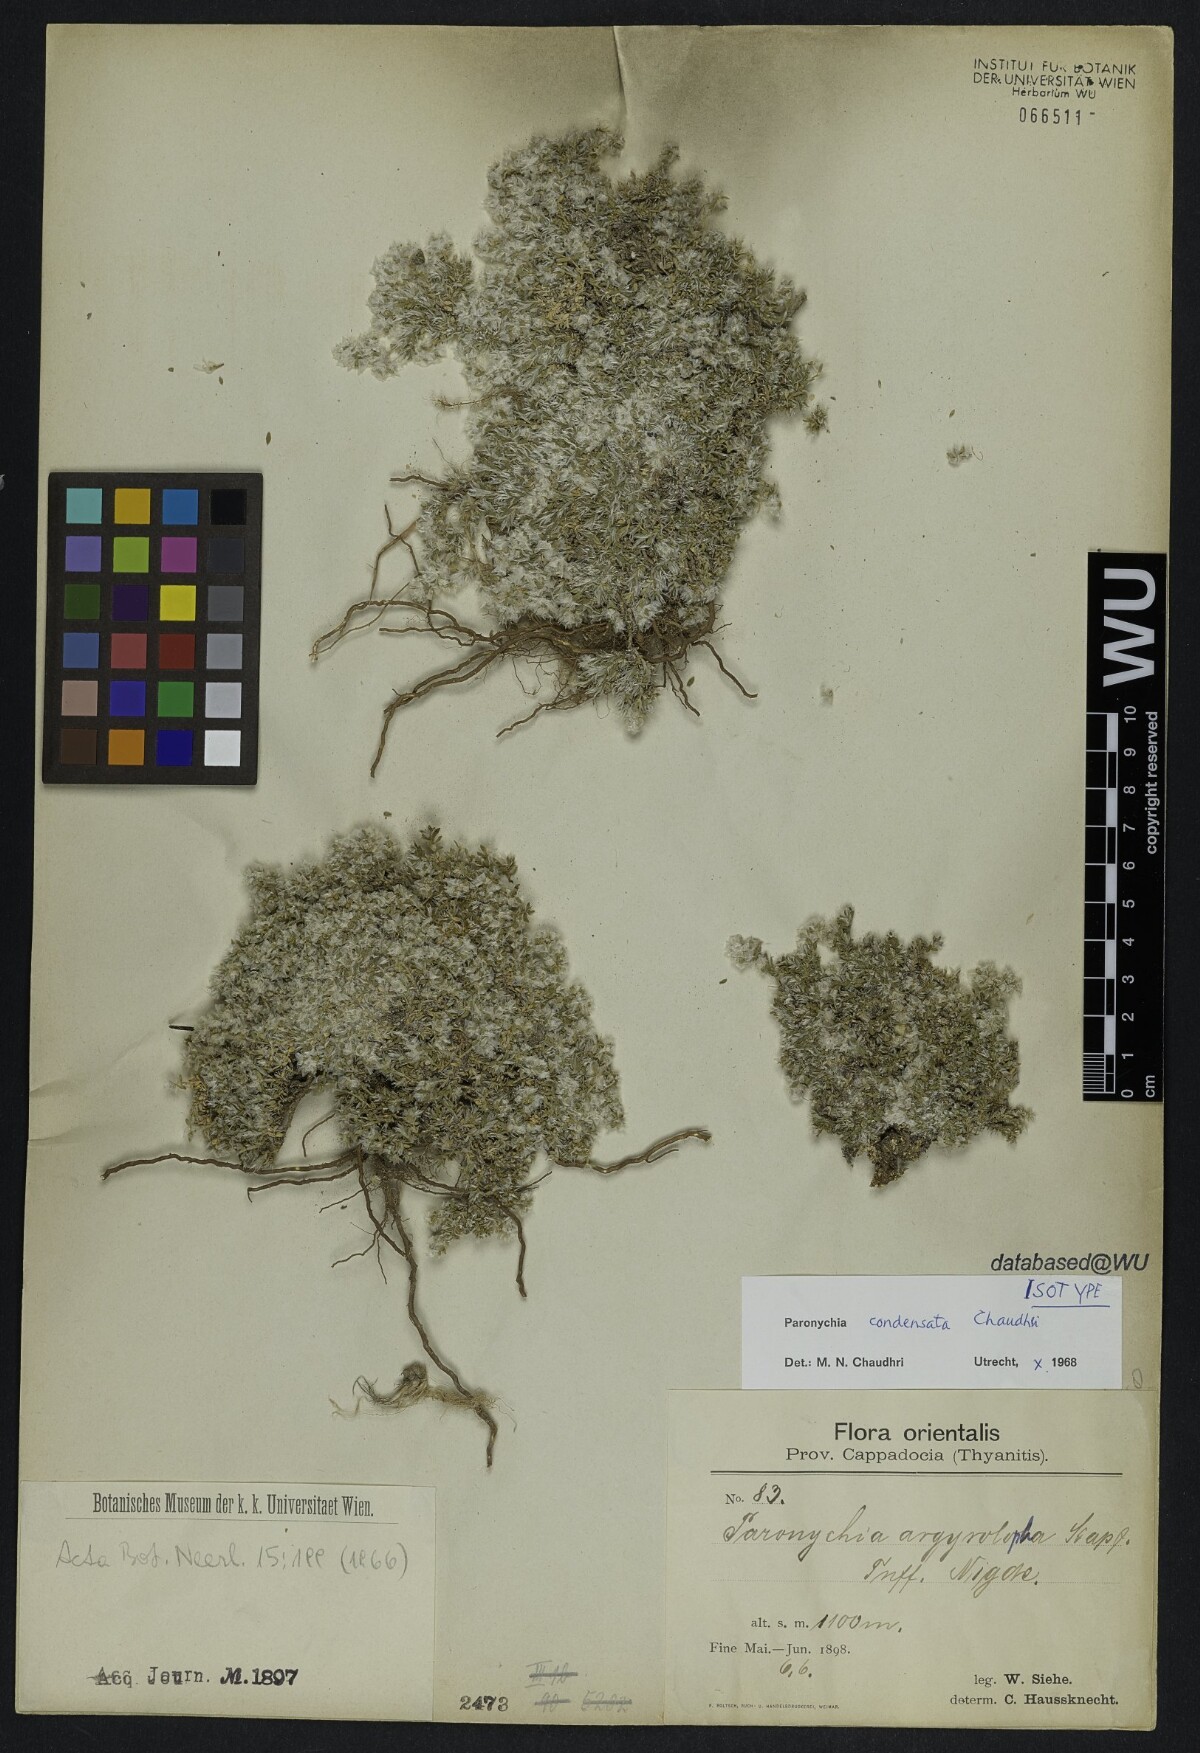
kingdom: Plantae
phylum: Tracheophyta
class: Magnoliopsida
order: Caryophyllales
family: Caryophyllaceae
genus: Paronychia
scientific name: Paronychia condensata
